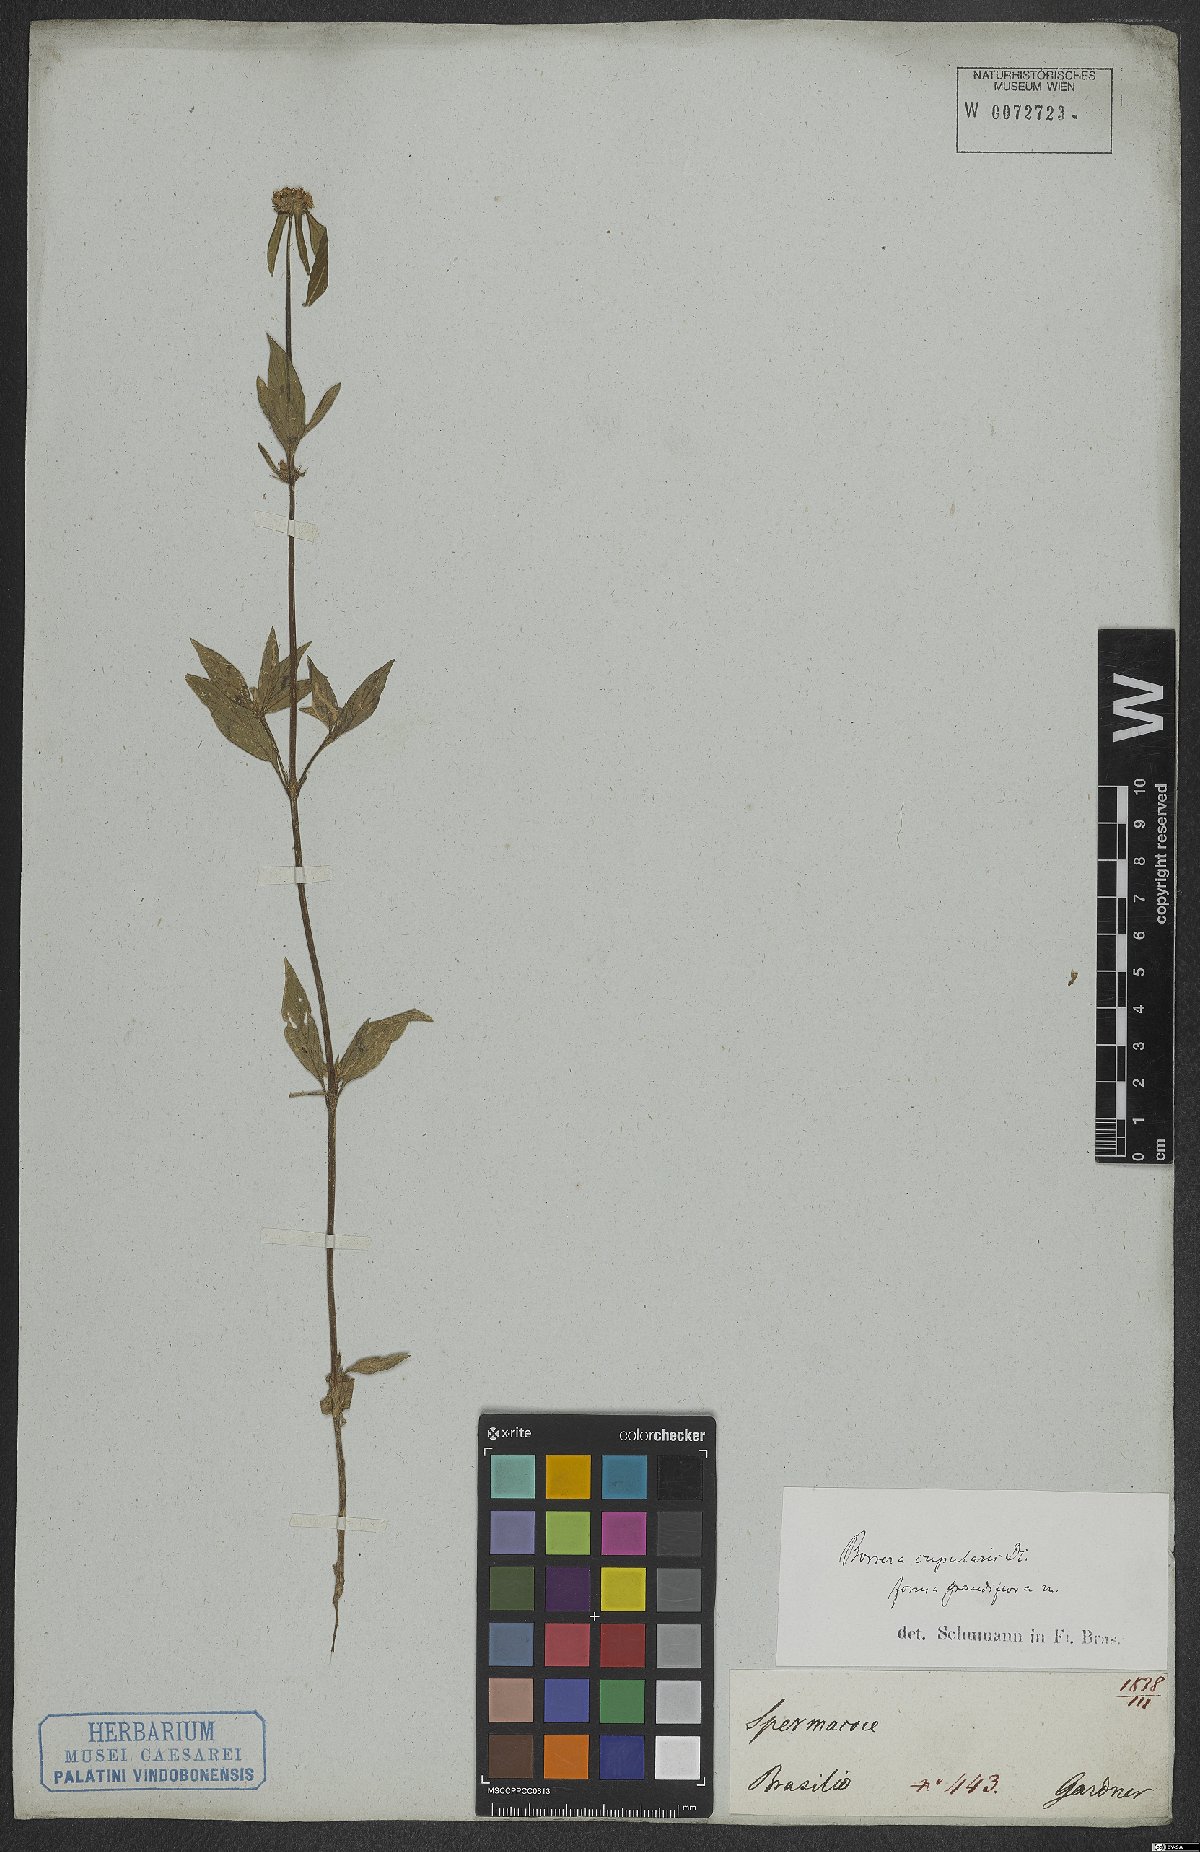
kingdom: Plantae
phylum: Tracheophyta
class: Magnoliopsida
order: Gentianales
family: Rubiaceae
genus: Spermacoce
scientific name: Spermacoce cupularis
